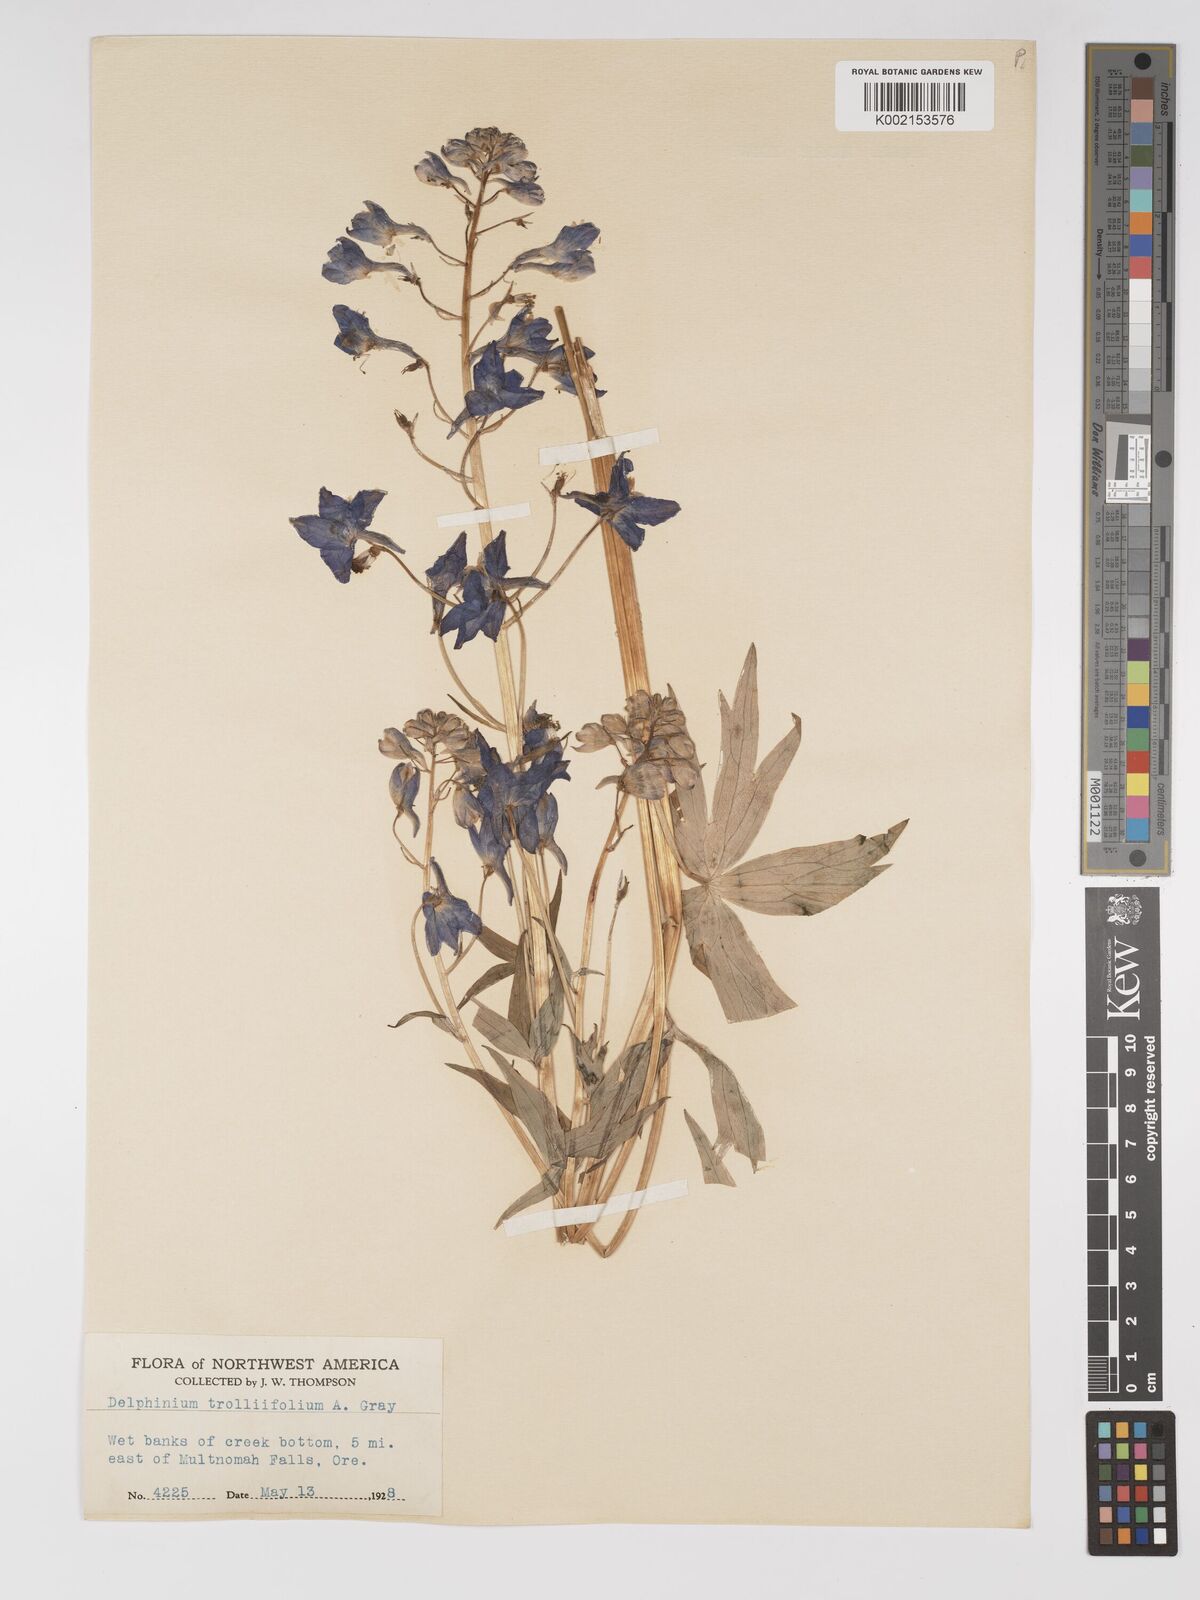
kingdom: Plantae
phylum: Tracheophyta
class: Magnoliopsida
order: Ranunculales
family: Ranunculaceae
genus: Delphinium
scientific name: Delphinium trolliifolium
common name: Cow-poison
